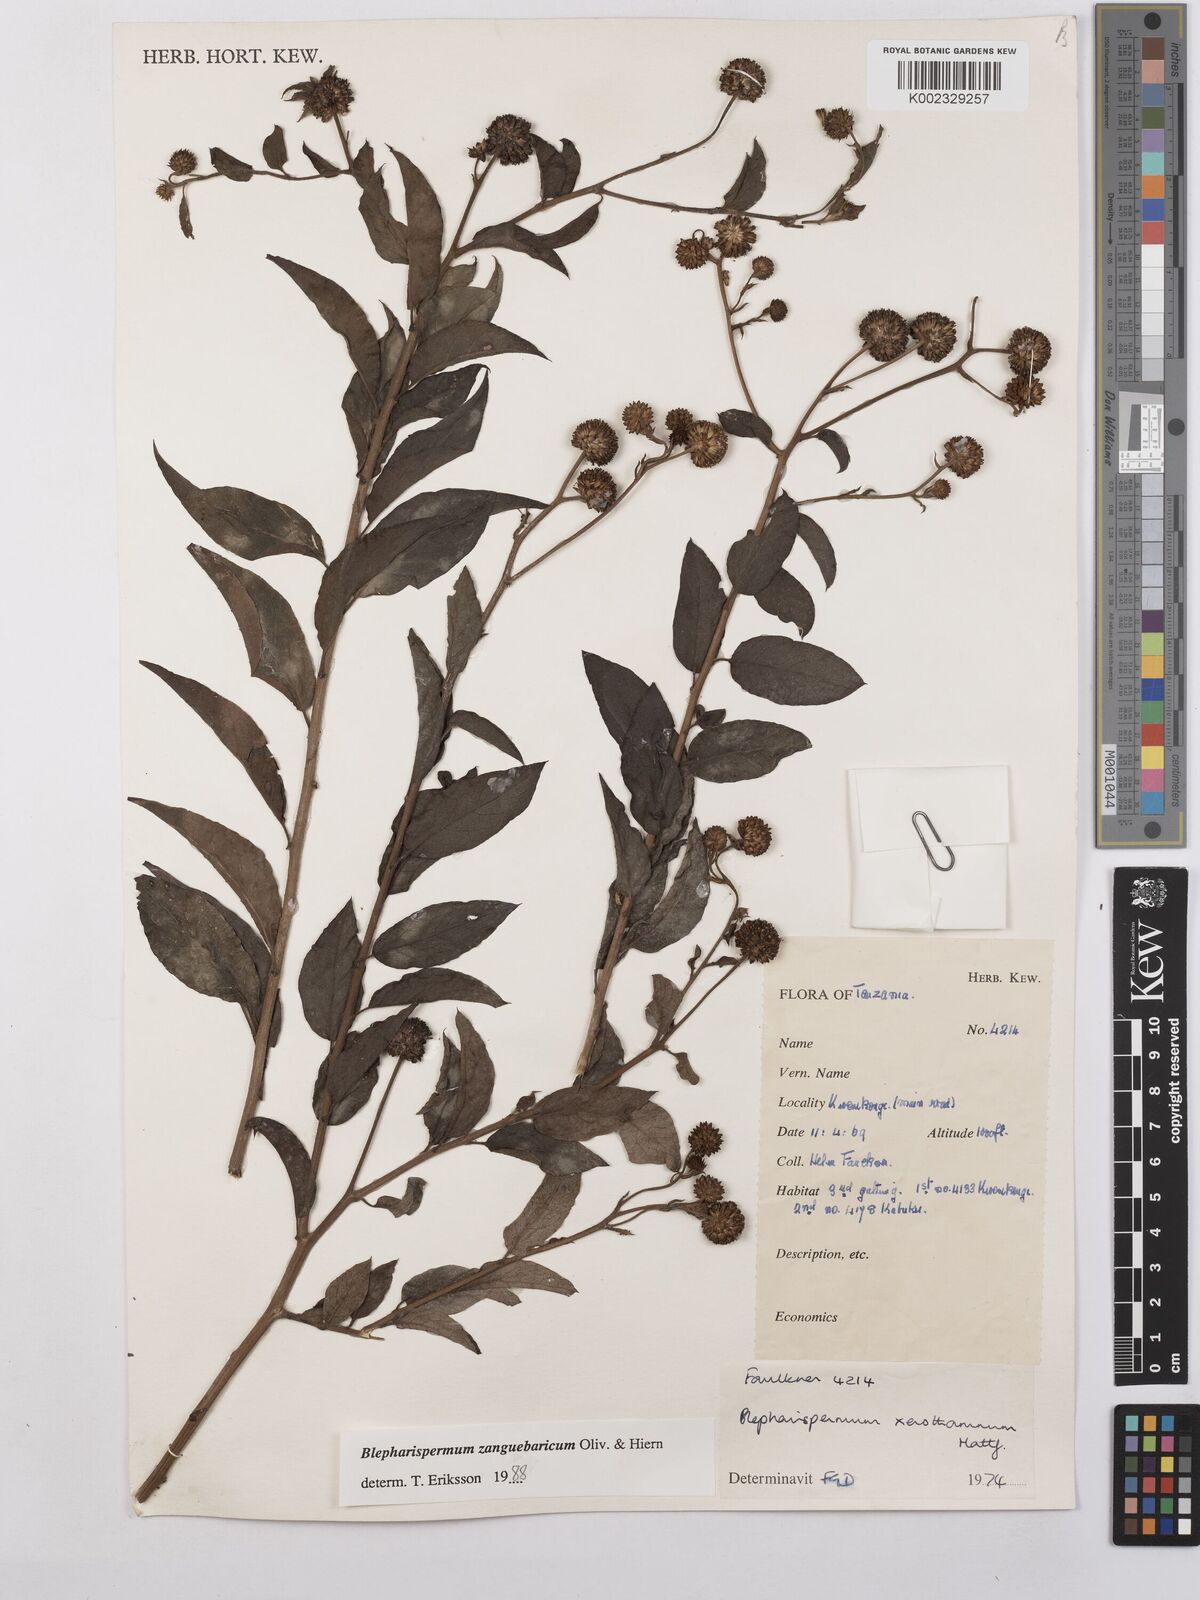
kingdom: Plantae
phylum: Tracheophyta
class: Magnoliopsida
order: Asterales
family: Asteraceae
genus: Blepharispermum
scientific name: Blepharispermum zanguebaricum
